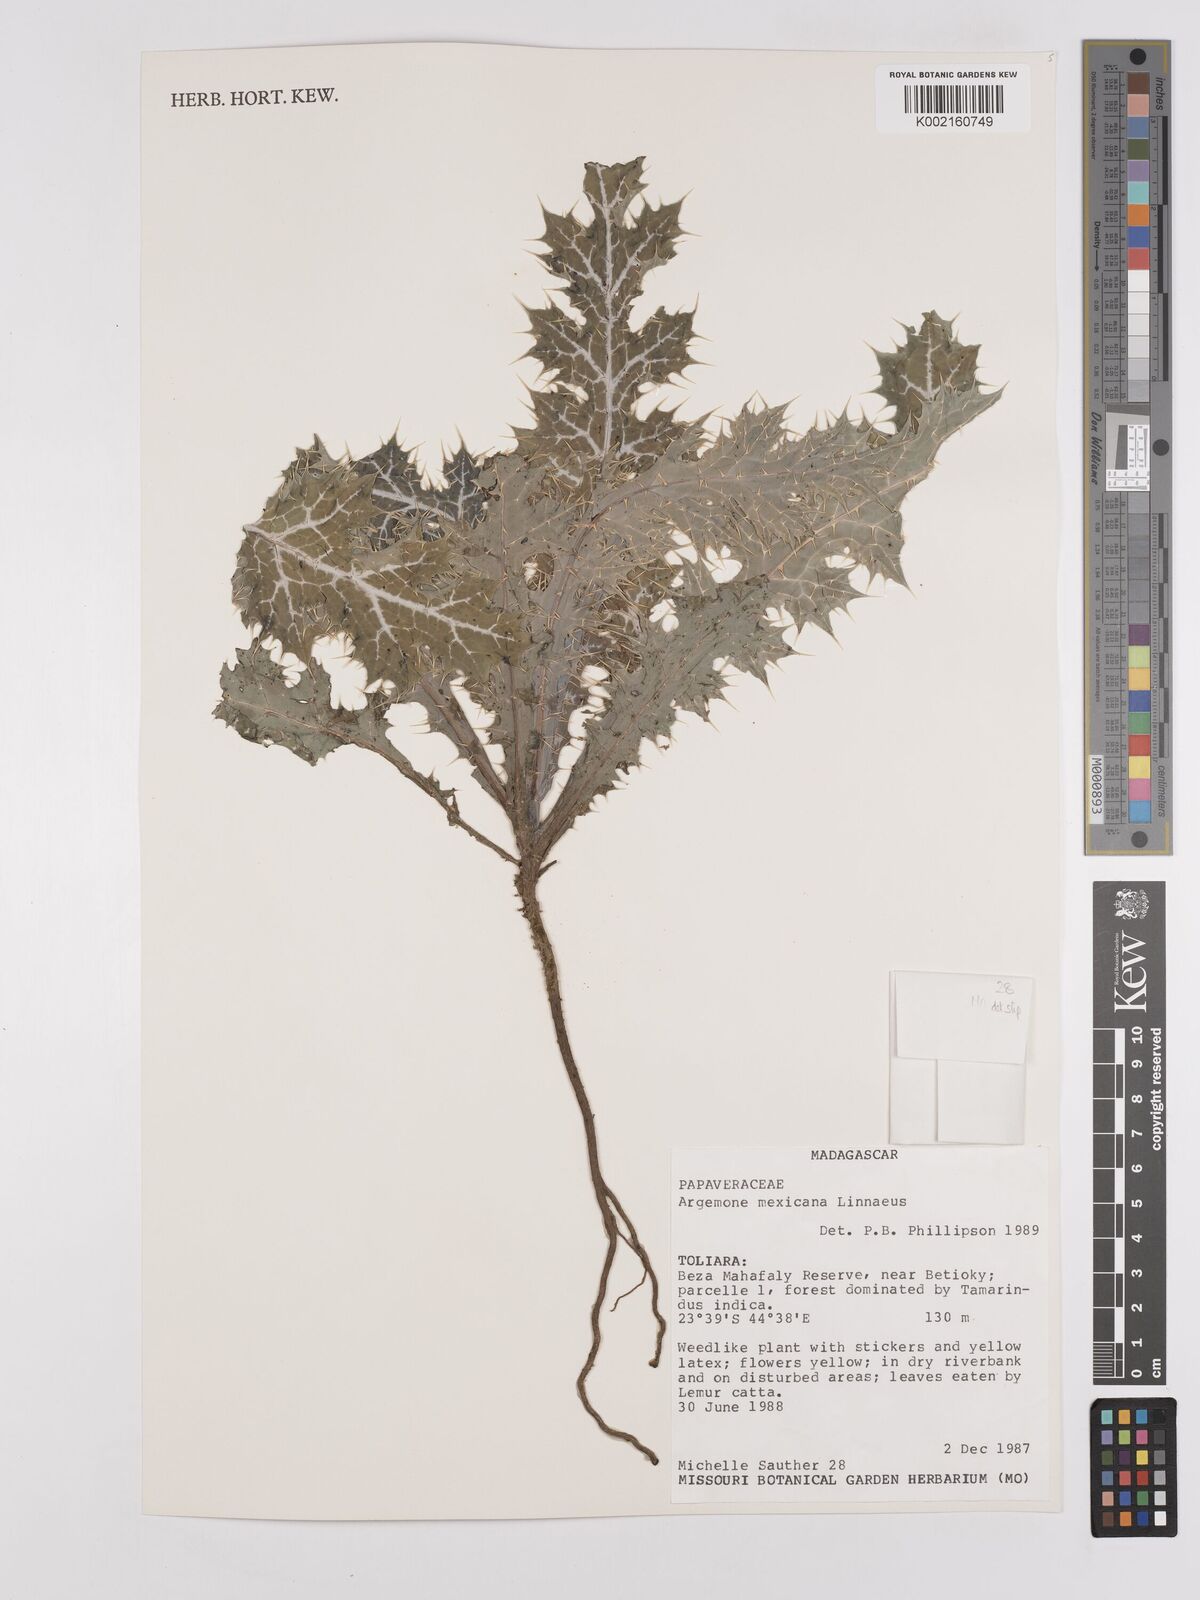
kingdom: Plantae
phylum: Tracheophyta
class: Magnoliopsida
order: Ranunculales
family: Papaveraceae
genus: Argemone
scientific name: Argemone mexicana
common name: Mexican poppy
